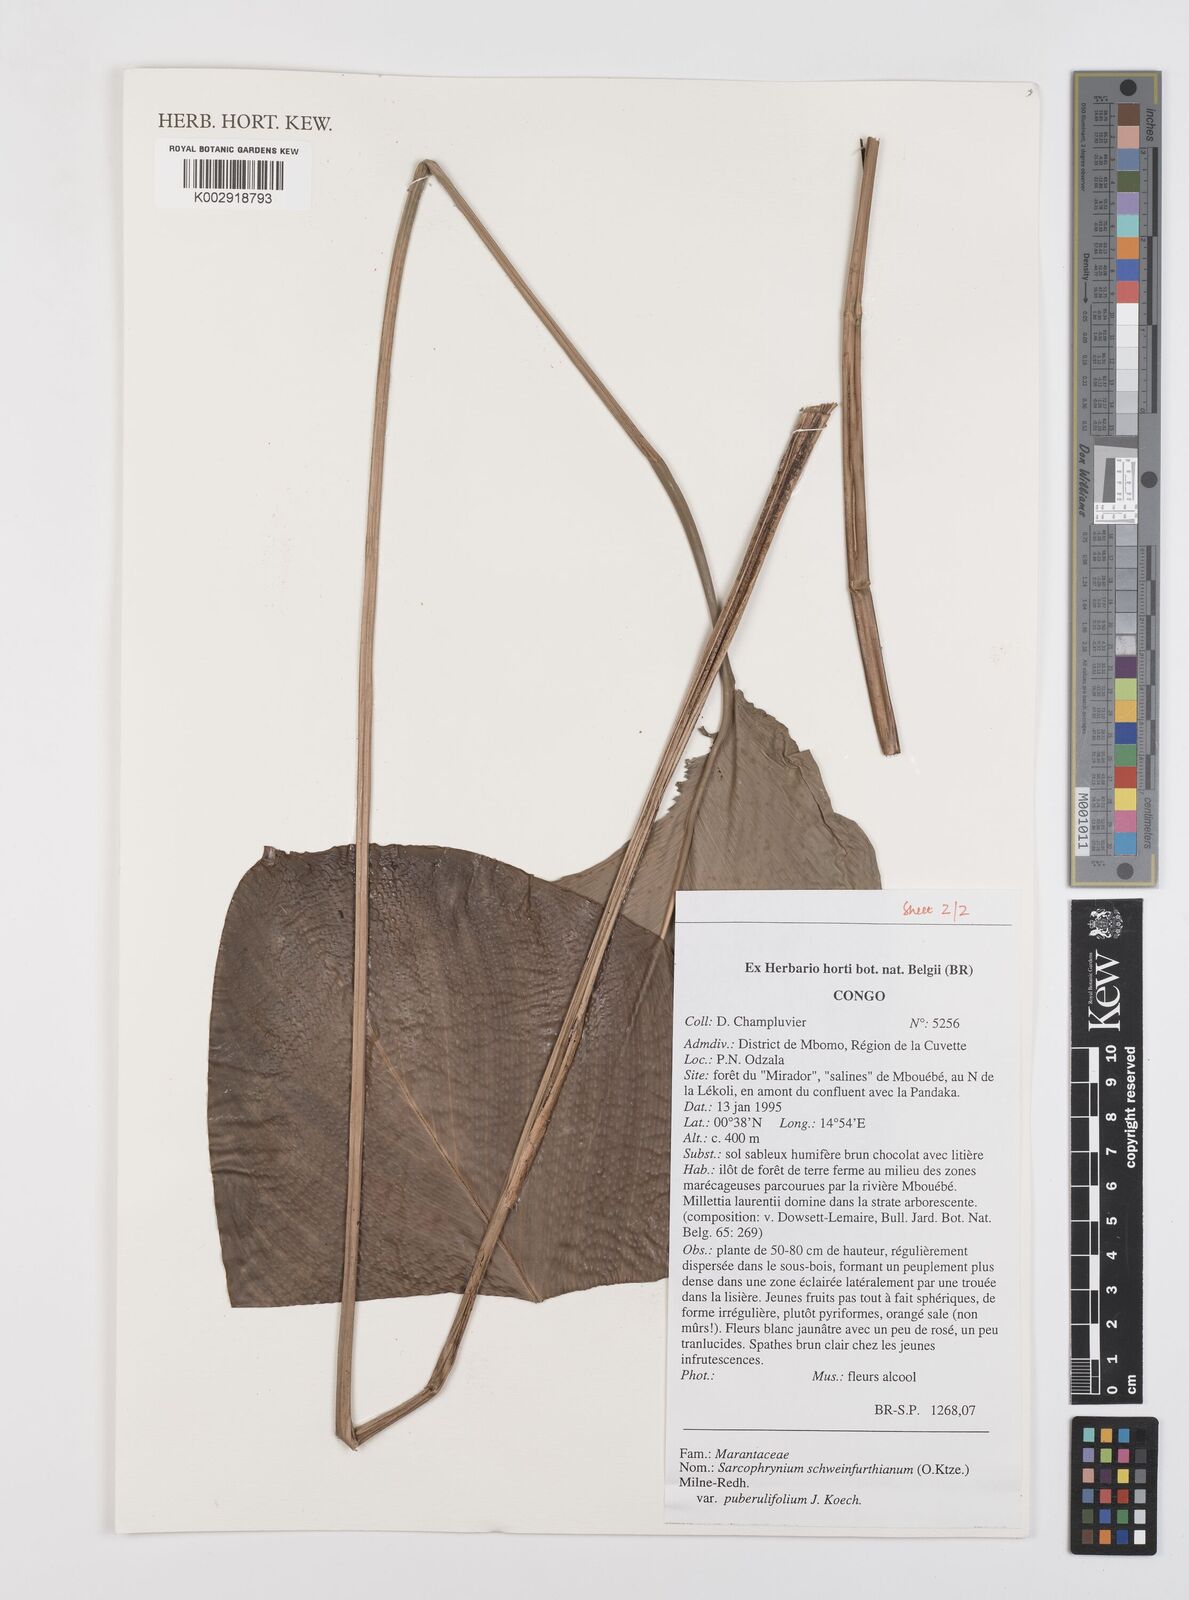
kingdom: Plantae
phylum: Tracheophyta
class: Liliopsida
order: Zingiberales
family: Marantaceae
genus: Sarcophrynium
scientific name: Sarcophrynium schweinfurthianum
